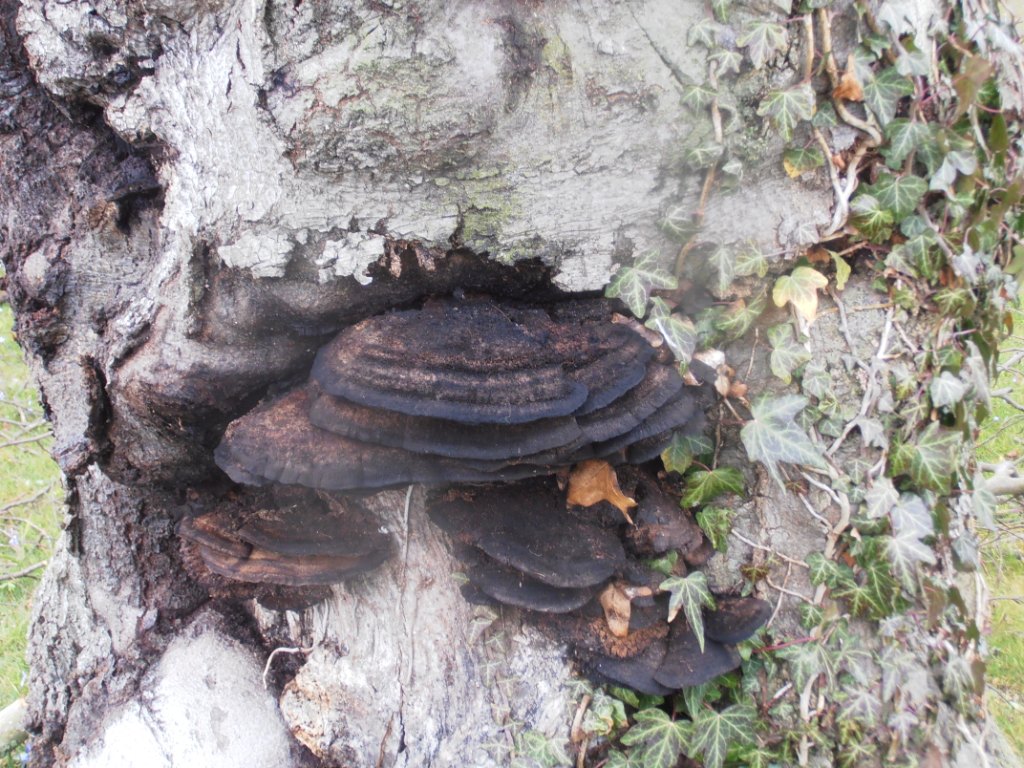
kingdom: Fungi
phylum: Basidiomycota
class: Agaricomycetes
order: Hymenochaetales
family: Hymenochaetaceae
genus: Inonotus
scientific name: Inonotus cuticularis
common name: kroghåret spejlporesvamp
